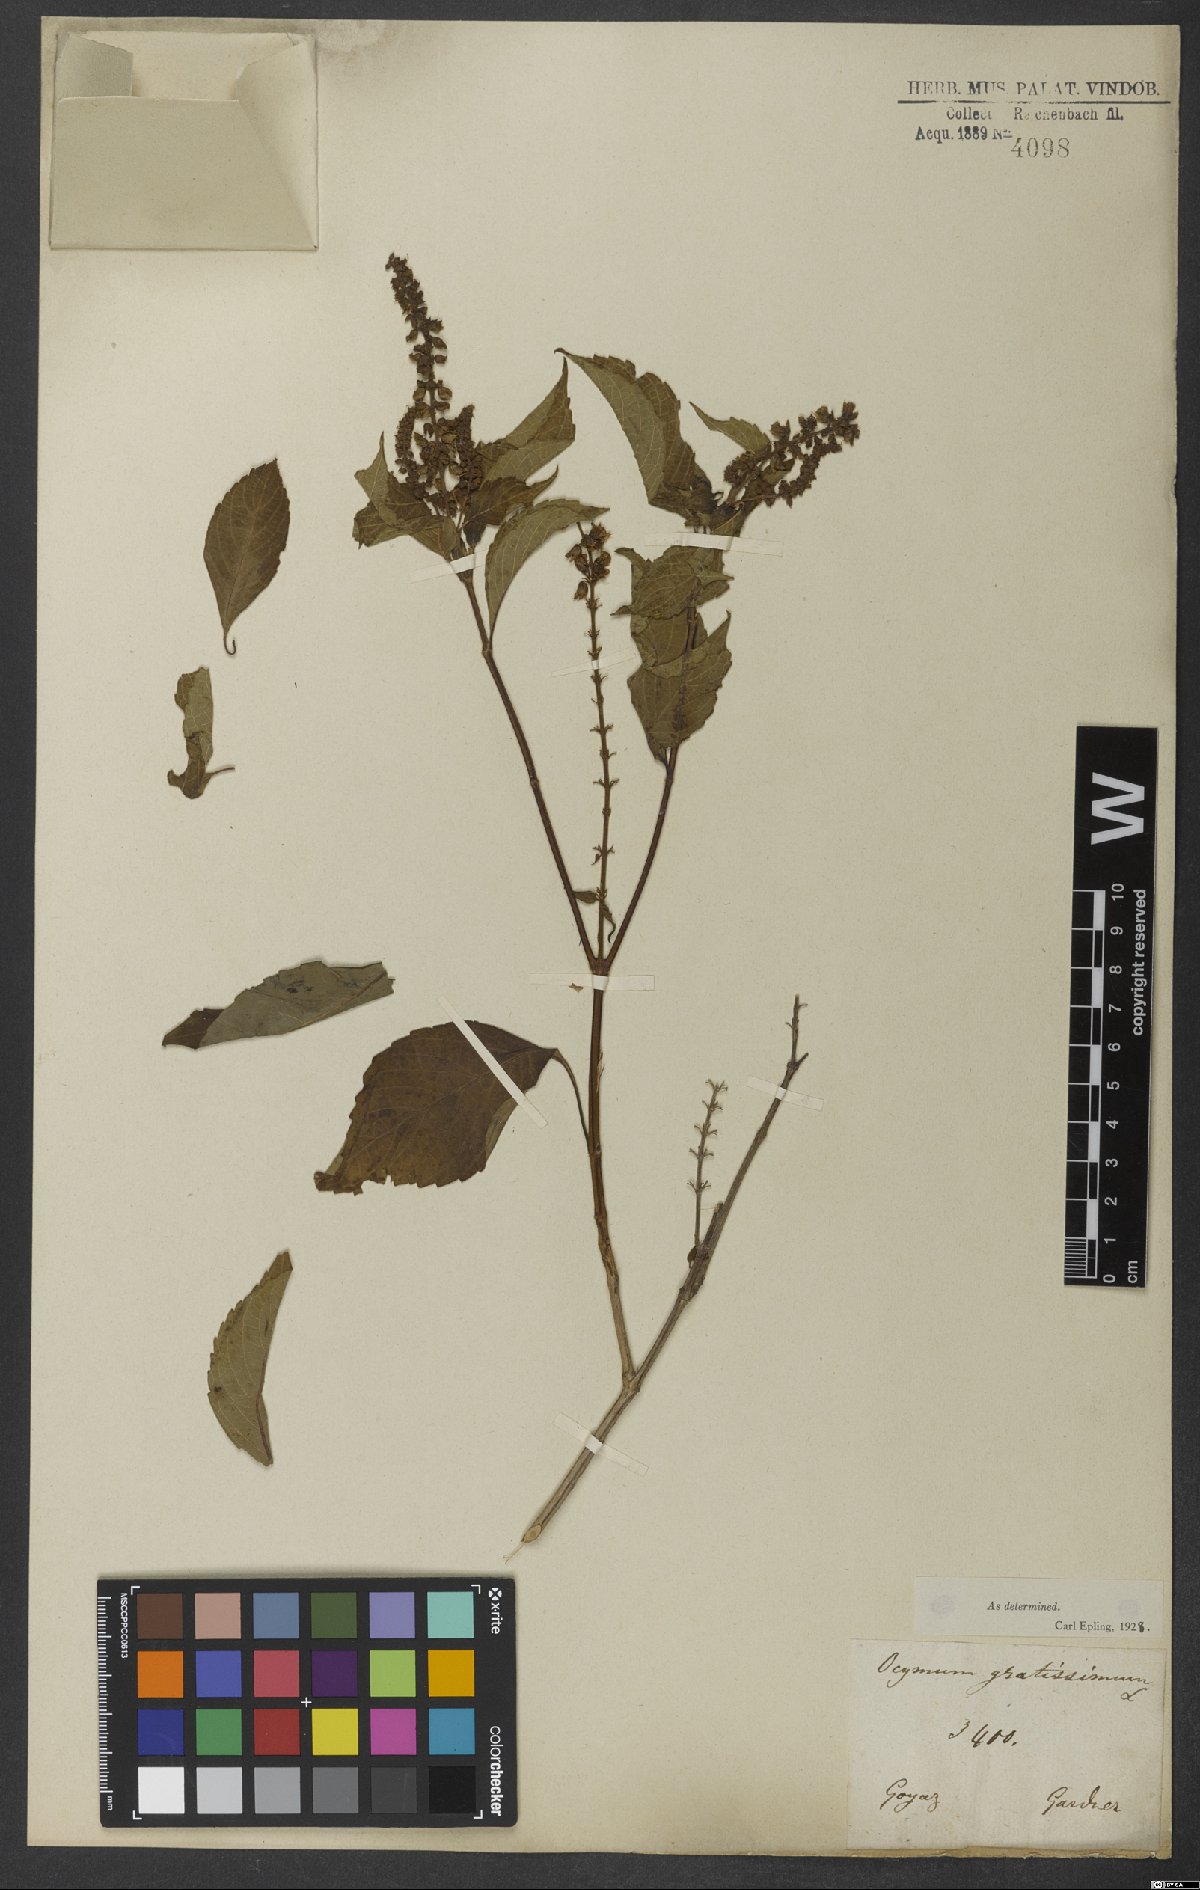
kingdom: Plantae
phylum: Tracheophyta
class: Magnoliopsida
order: Lamiales
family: Lamiaceae
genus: Ocimum
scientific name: Ocimum gratissimum
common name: African basil
